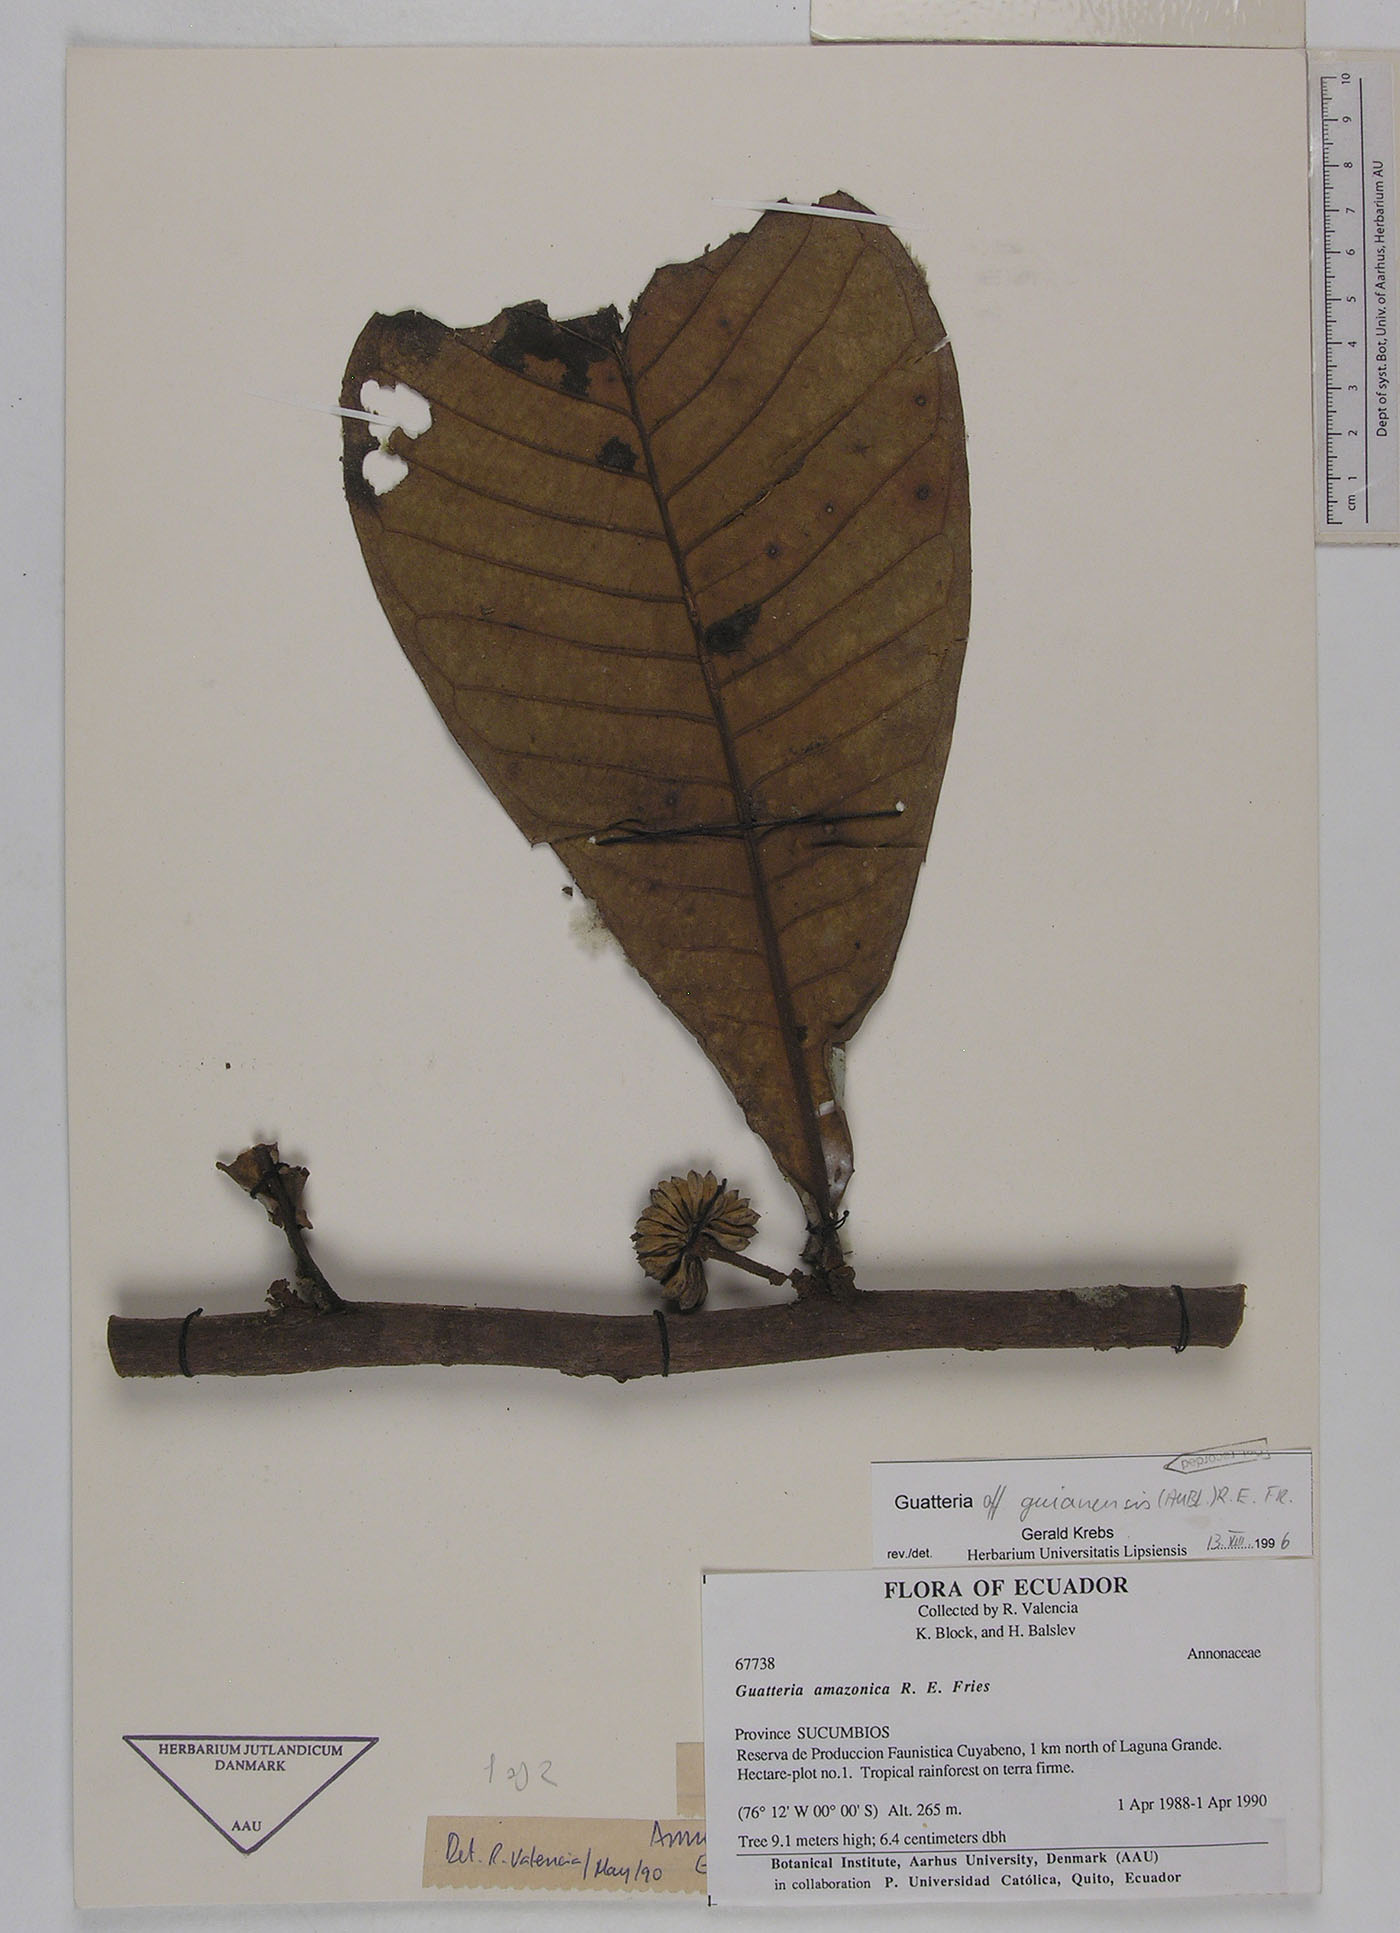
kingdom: Plantae
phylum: Tracheophyta
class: Magnoliopsida
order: Magnoliales
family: Annonaceae
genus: Guatteria
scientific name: Guatteria guianensis
